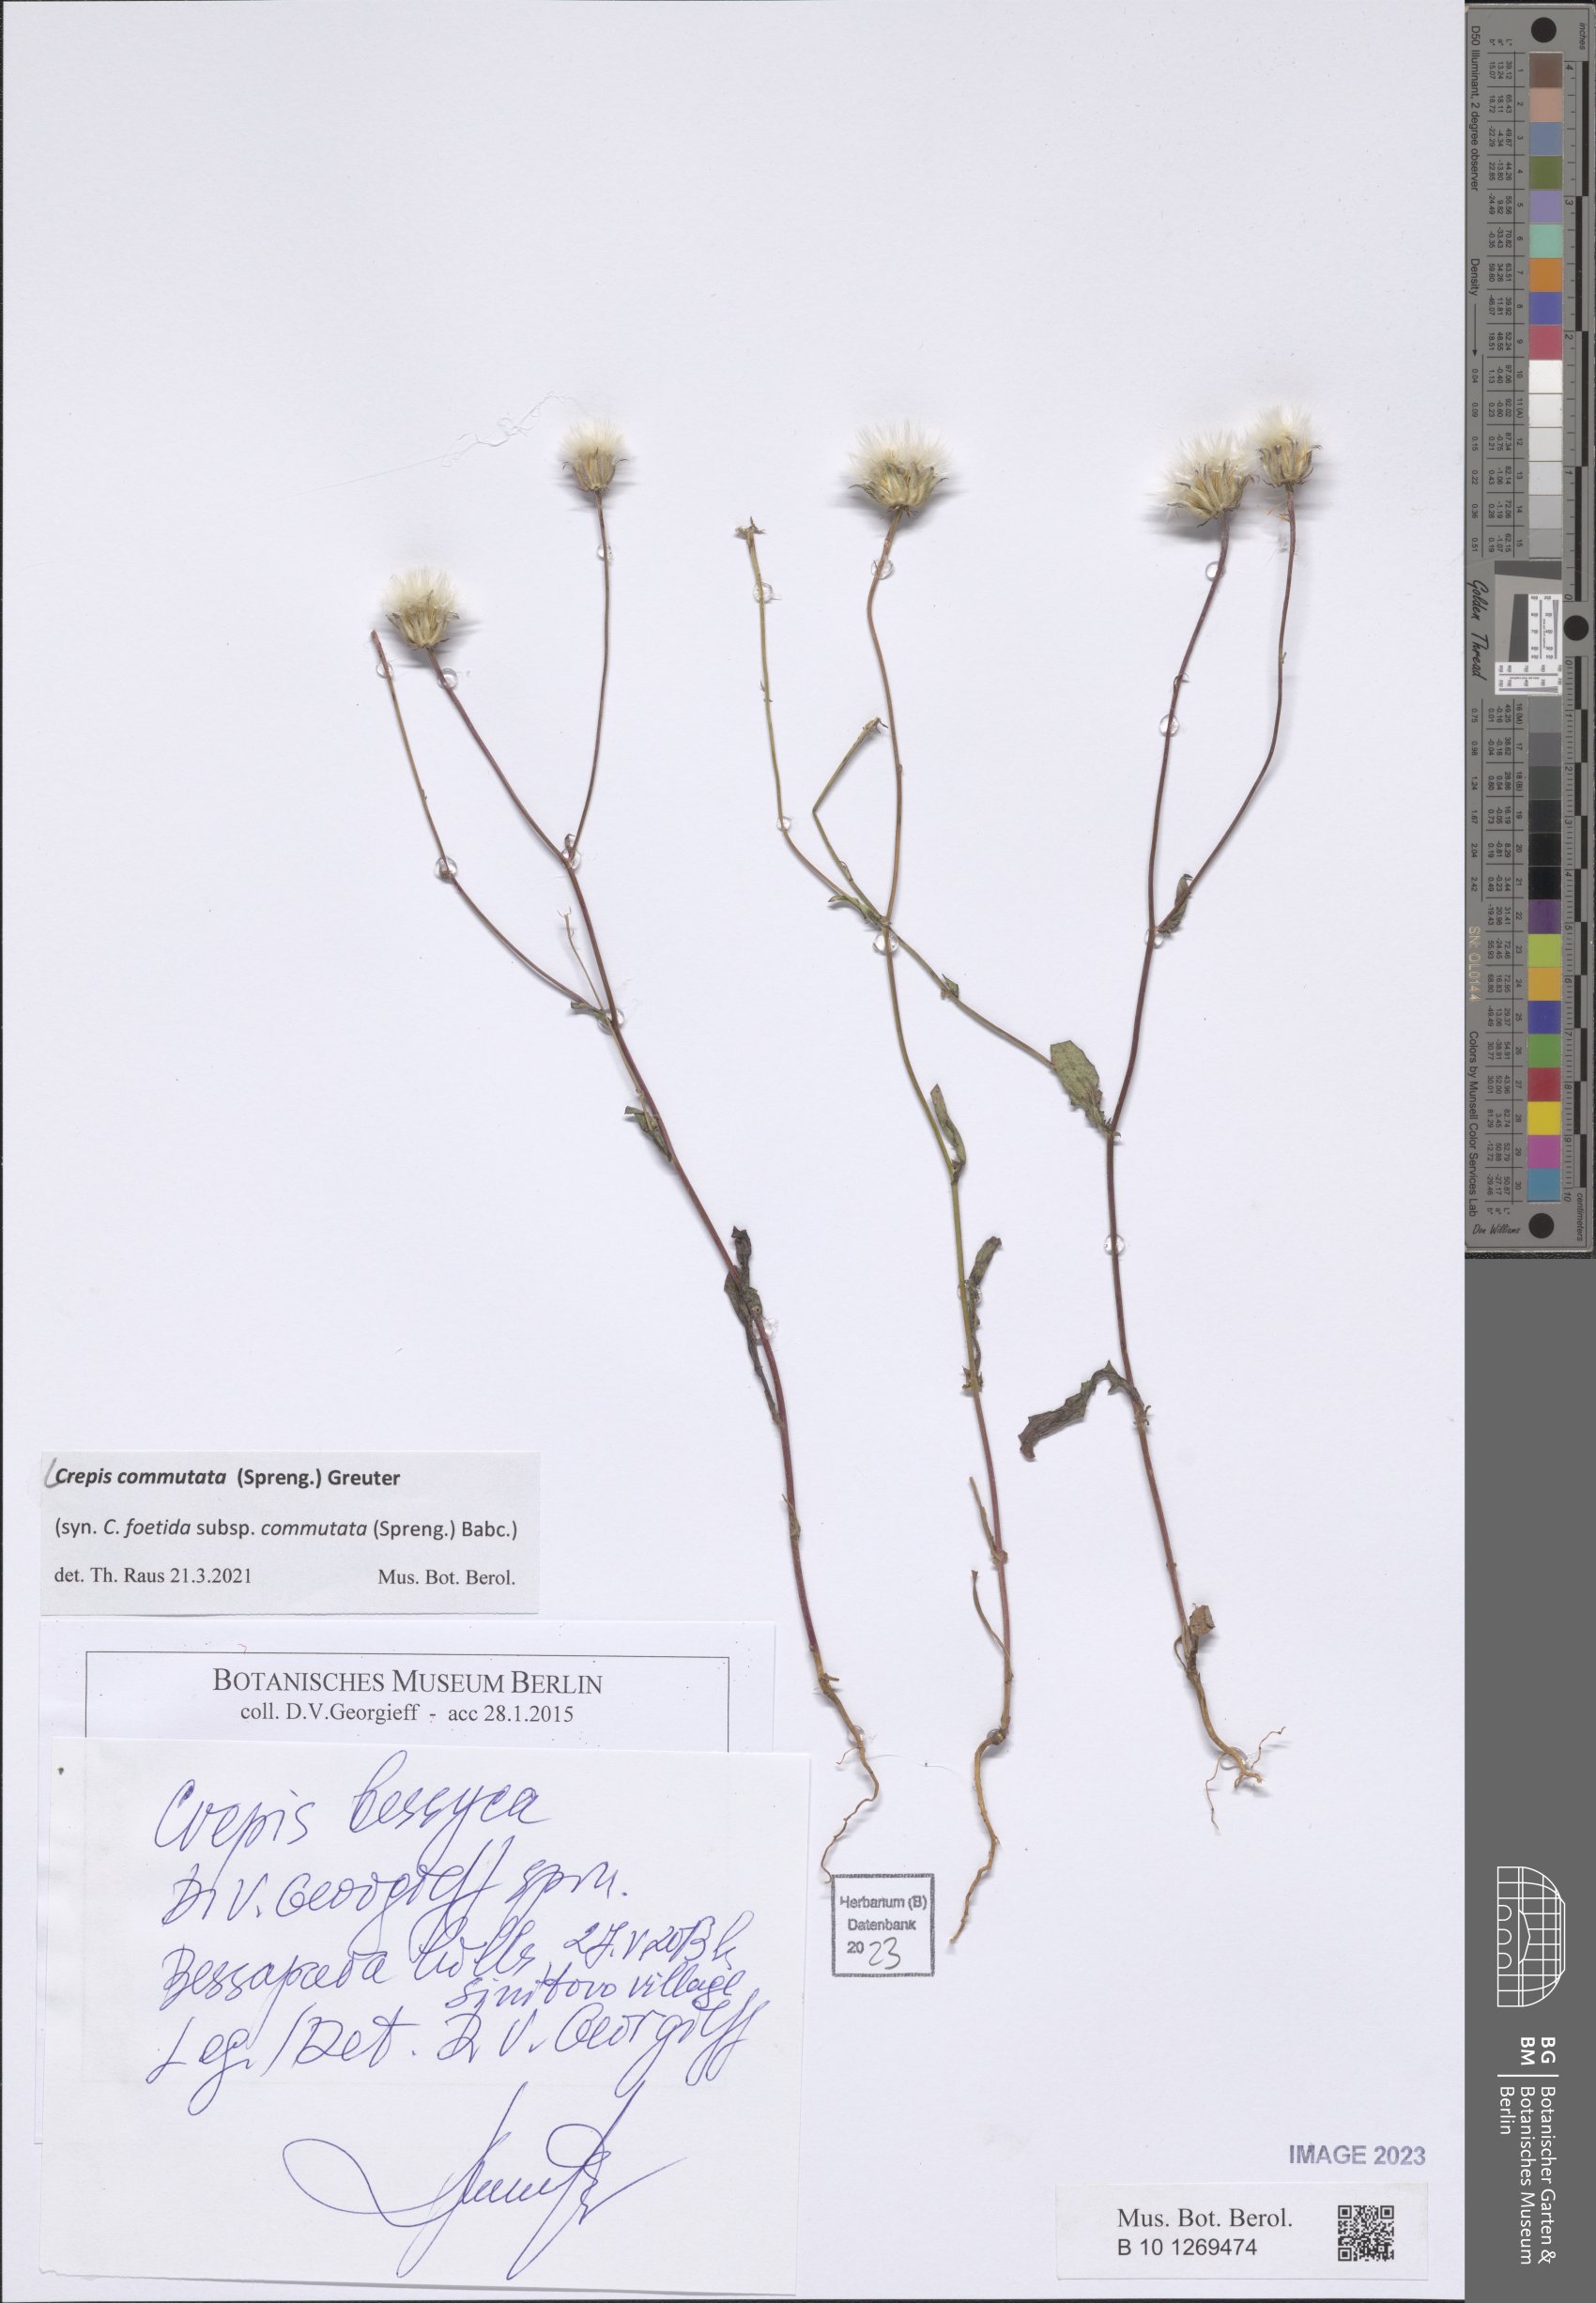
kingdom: Plantae
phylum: Tracheophyta
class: Magnoliopsida
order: Asterales
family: Asteraceae
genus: Crepis
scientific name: Crepis commutata
